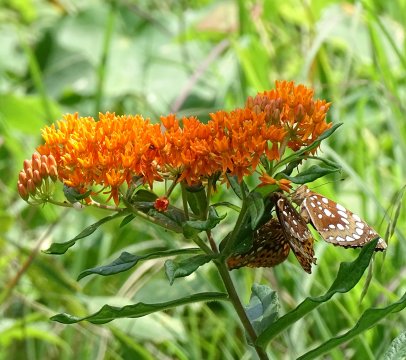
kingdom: Animalia
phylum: Arthropoda
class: Insecta
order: Lepidoptera
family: Nymphalidae
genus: Speyeria
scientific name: Speyeria cybele
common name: Great Spangled Fritillary
